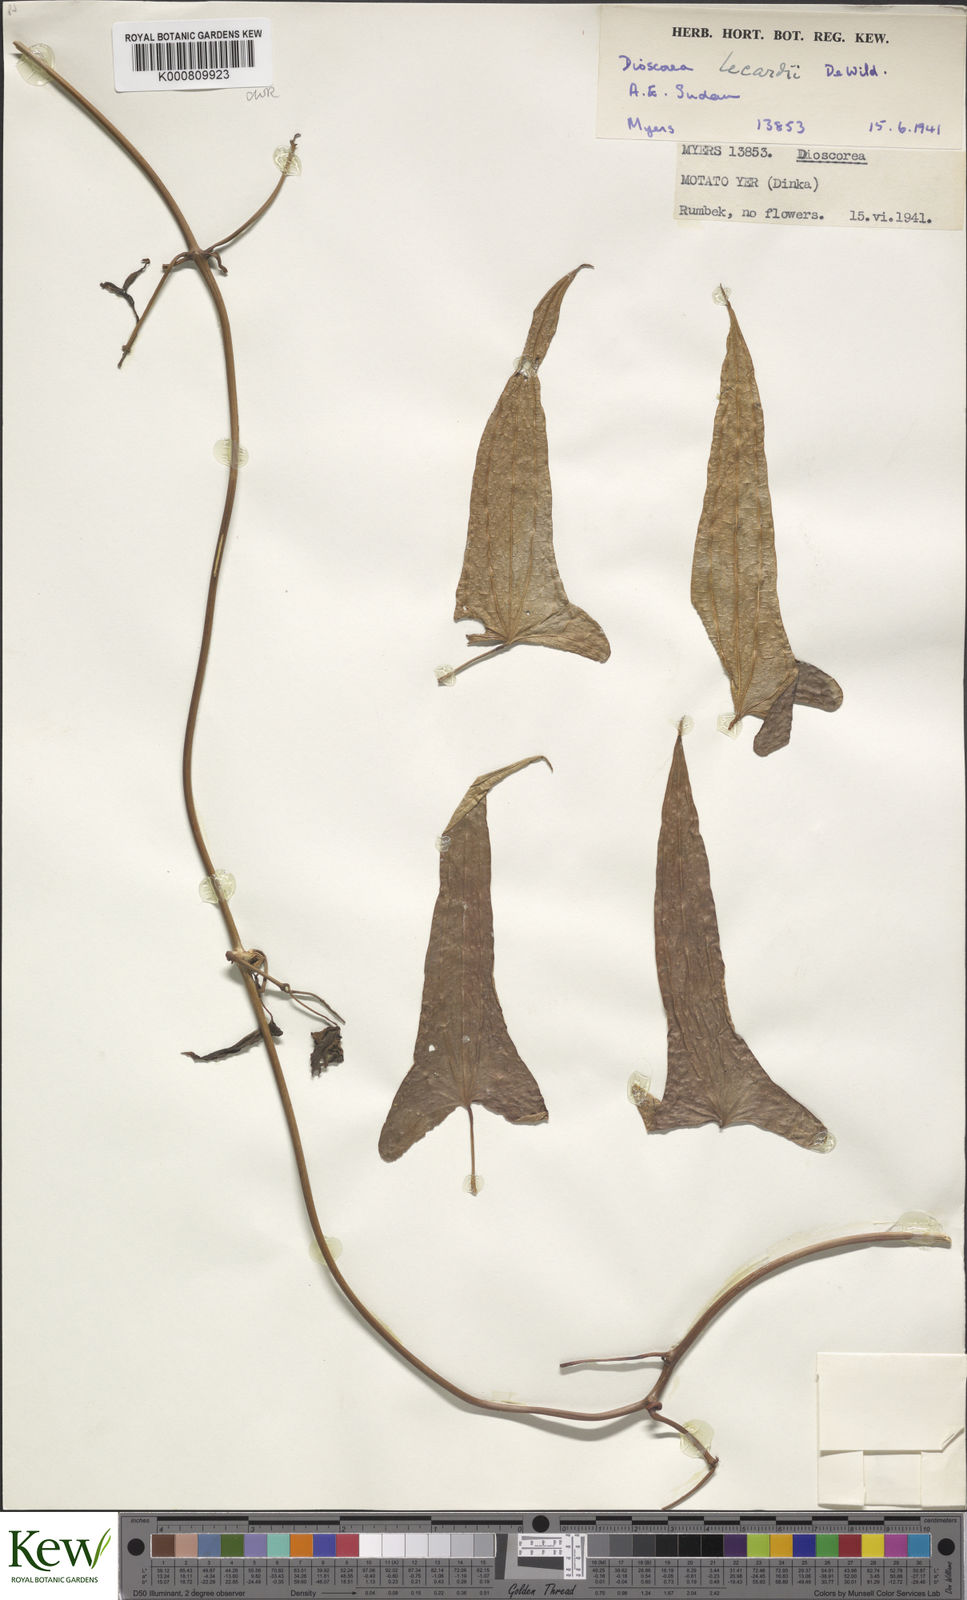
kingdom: Plantae
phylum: Tracheophyta
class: Liliopsida
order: Dioscoreales
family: Dioscoreaceae
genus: Dioscorea
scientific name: Dioscorea sagittifolia
